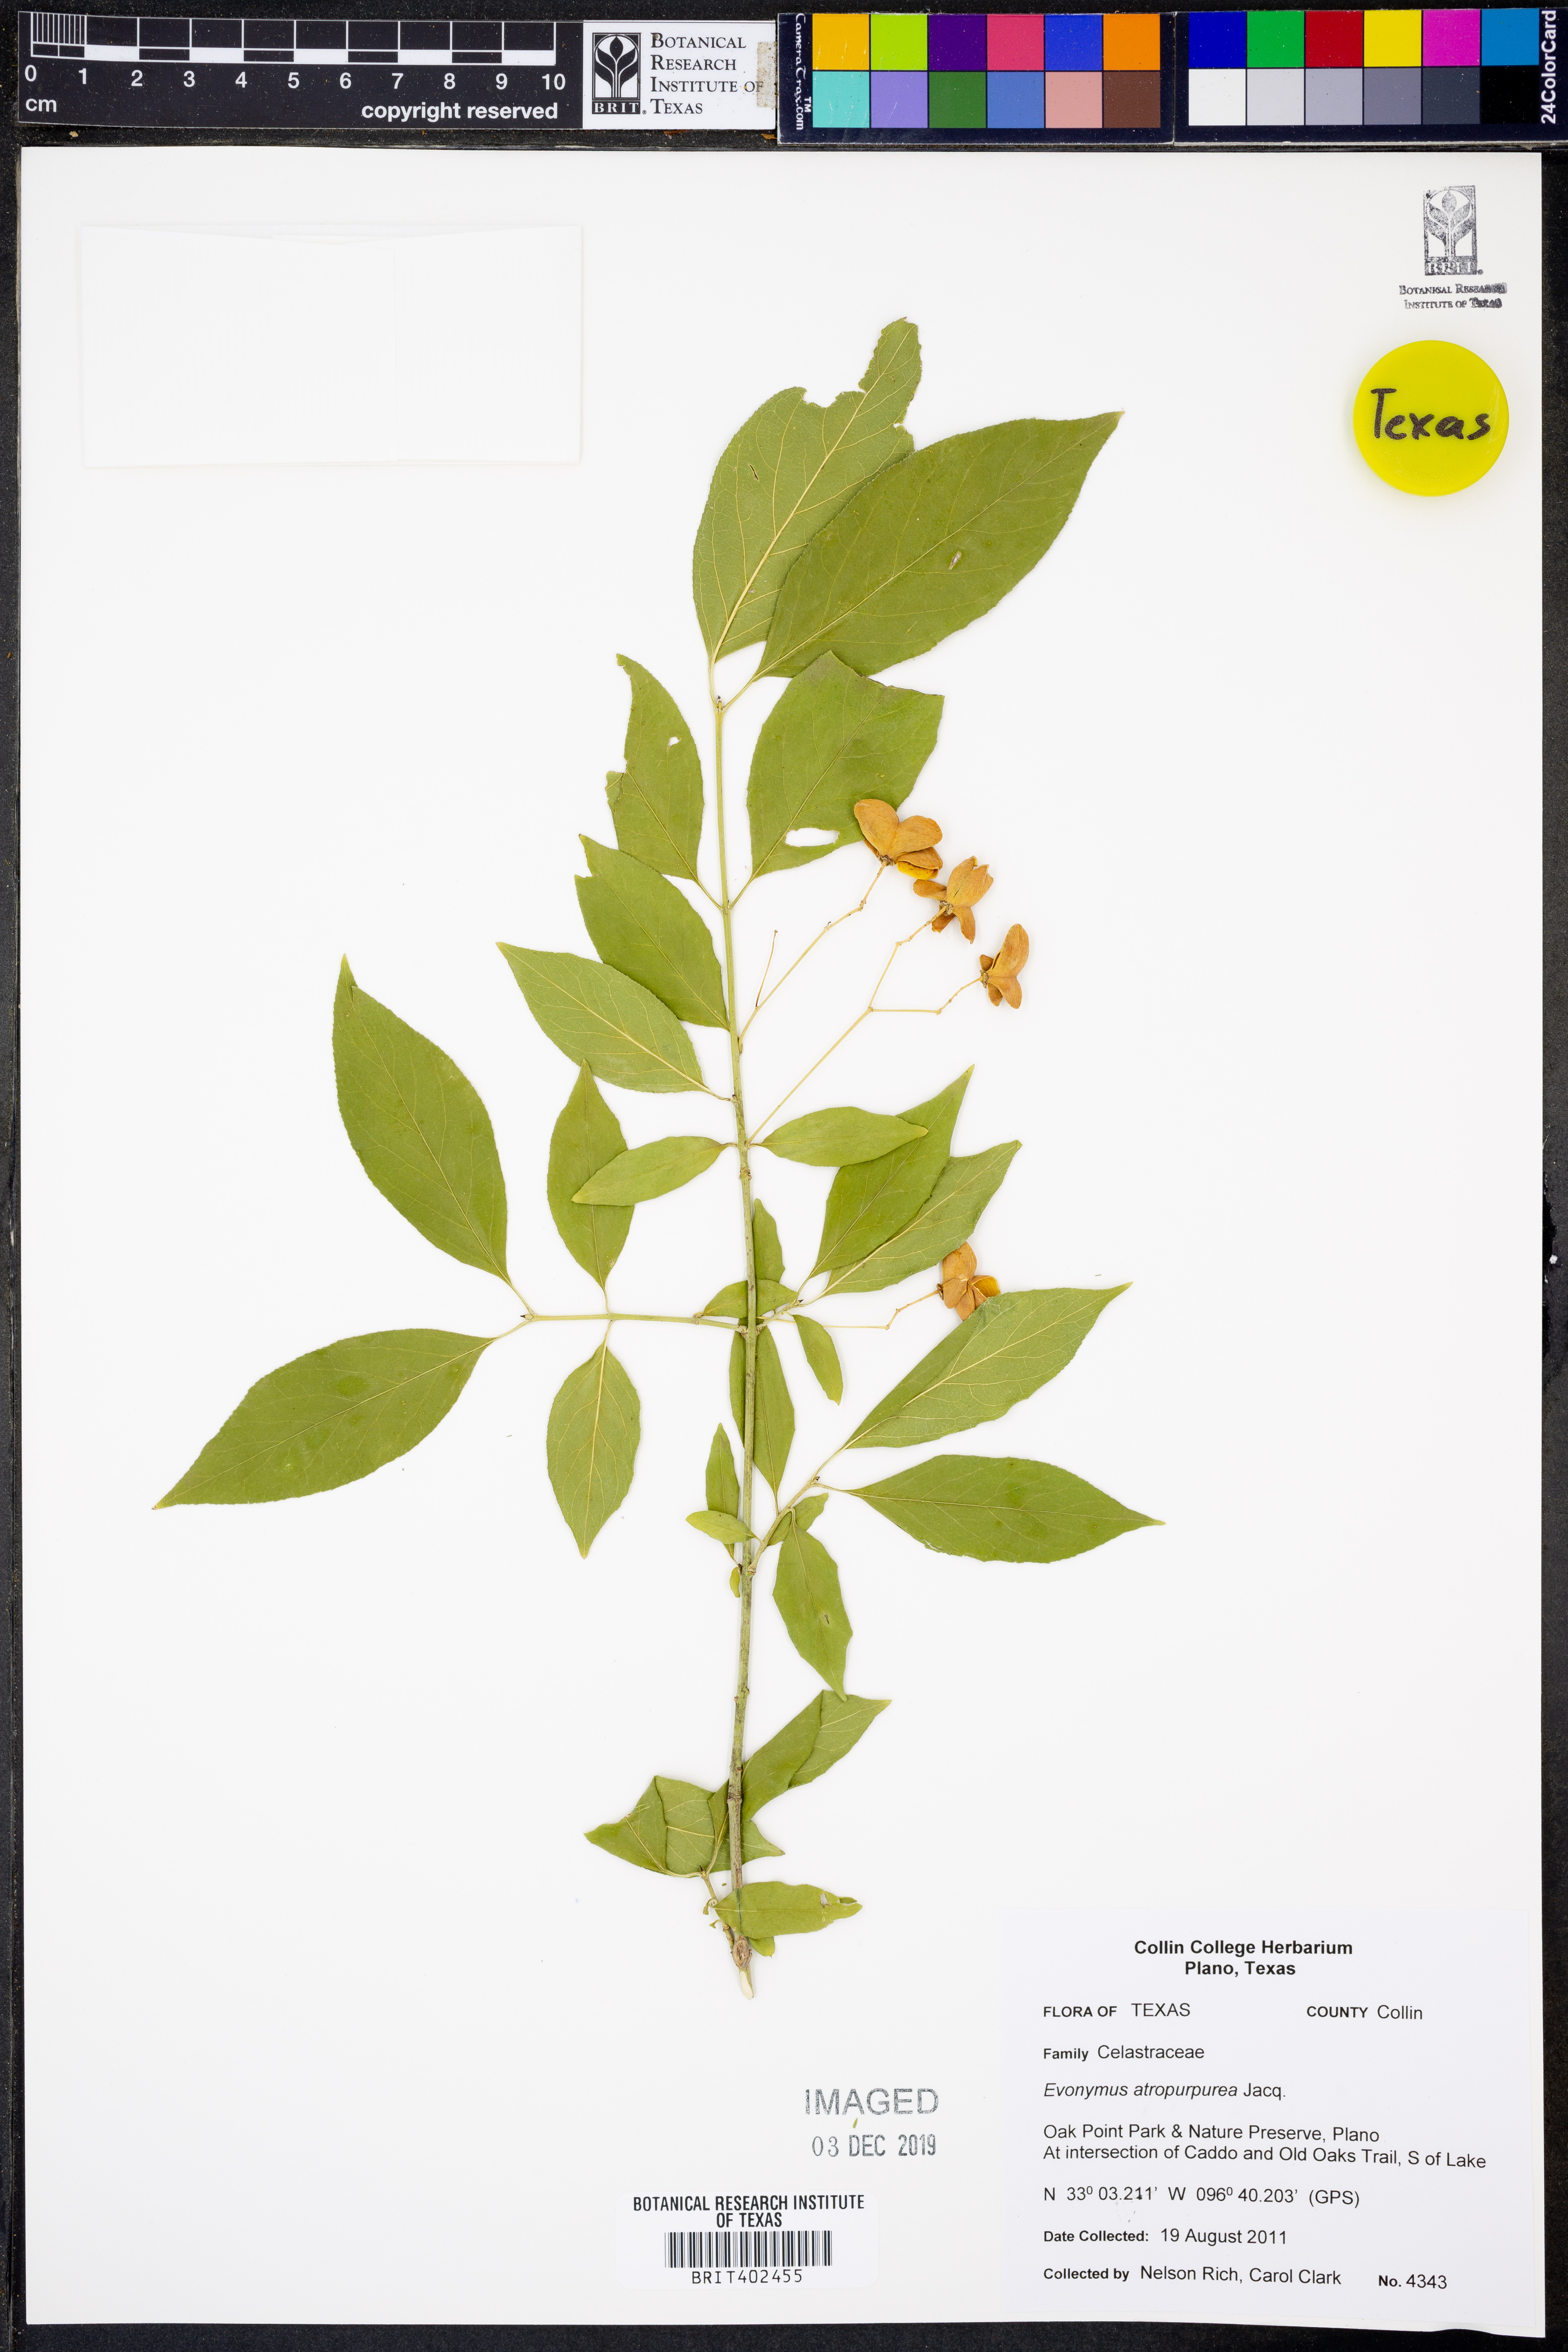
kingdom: Plantae
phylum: Tracheophyta
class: Magnoliopsida
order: Celastrales
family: Celastraceae
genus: Euonymus
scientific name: Euonymus atropurpureus
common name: Eastern wahoo
